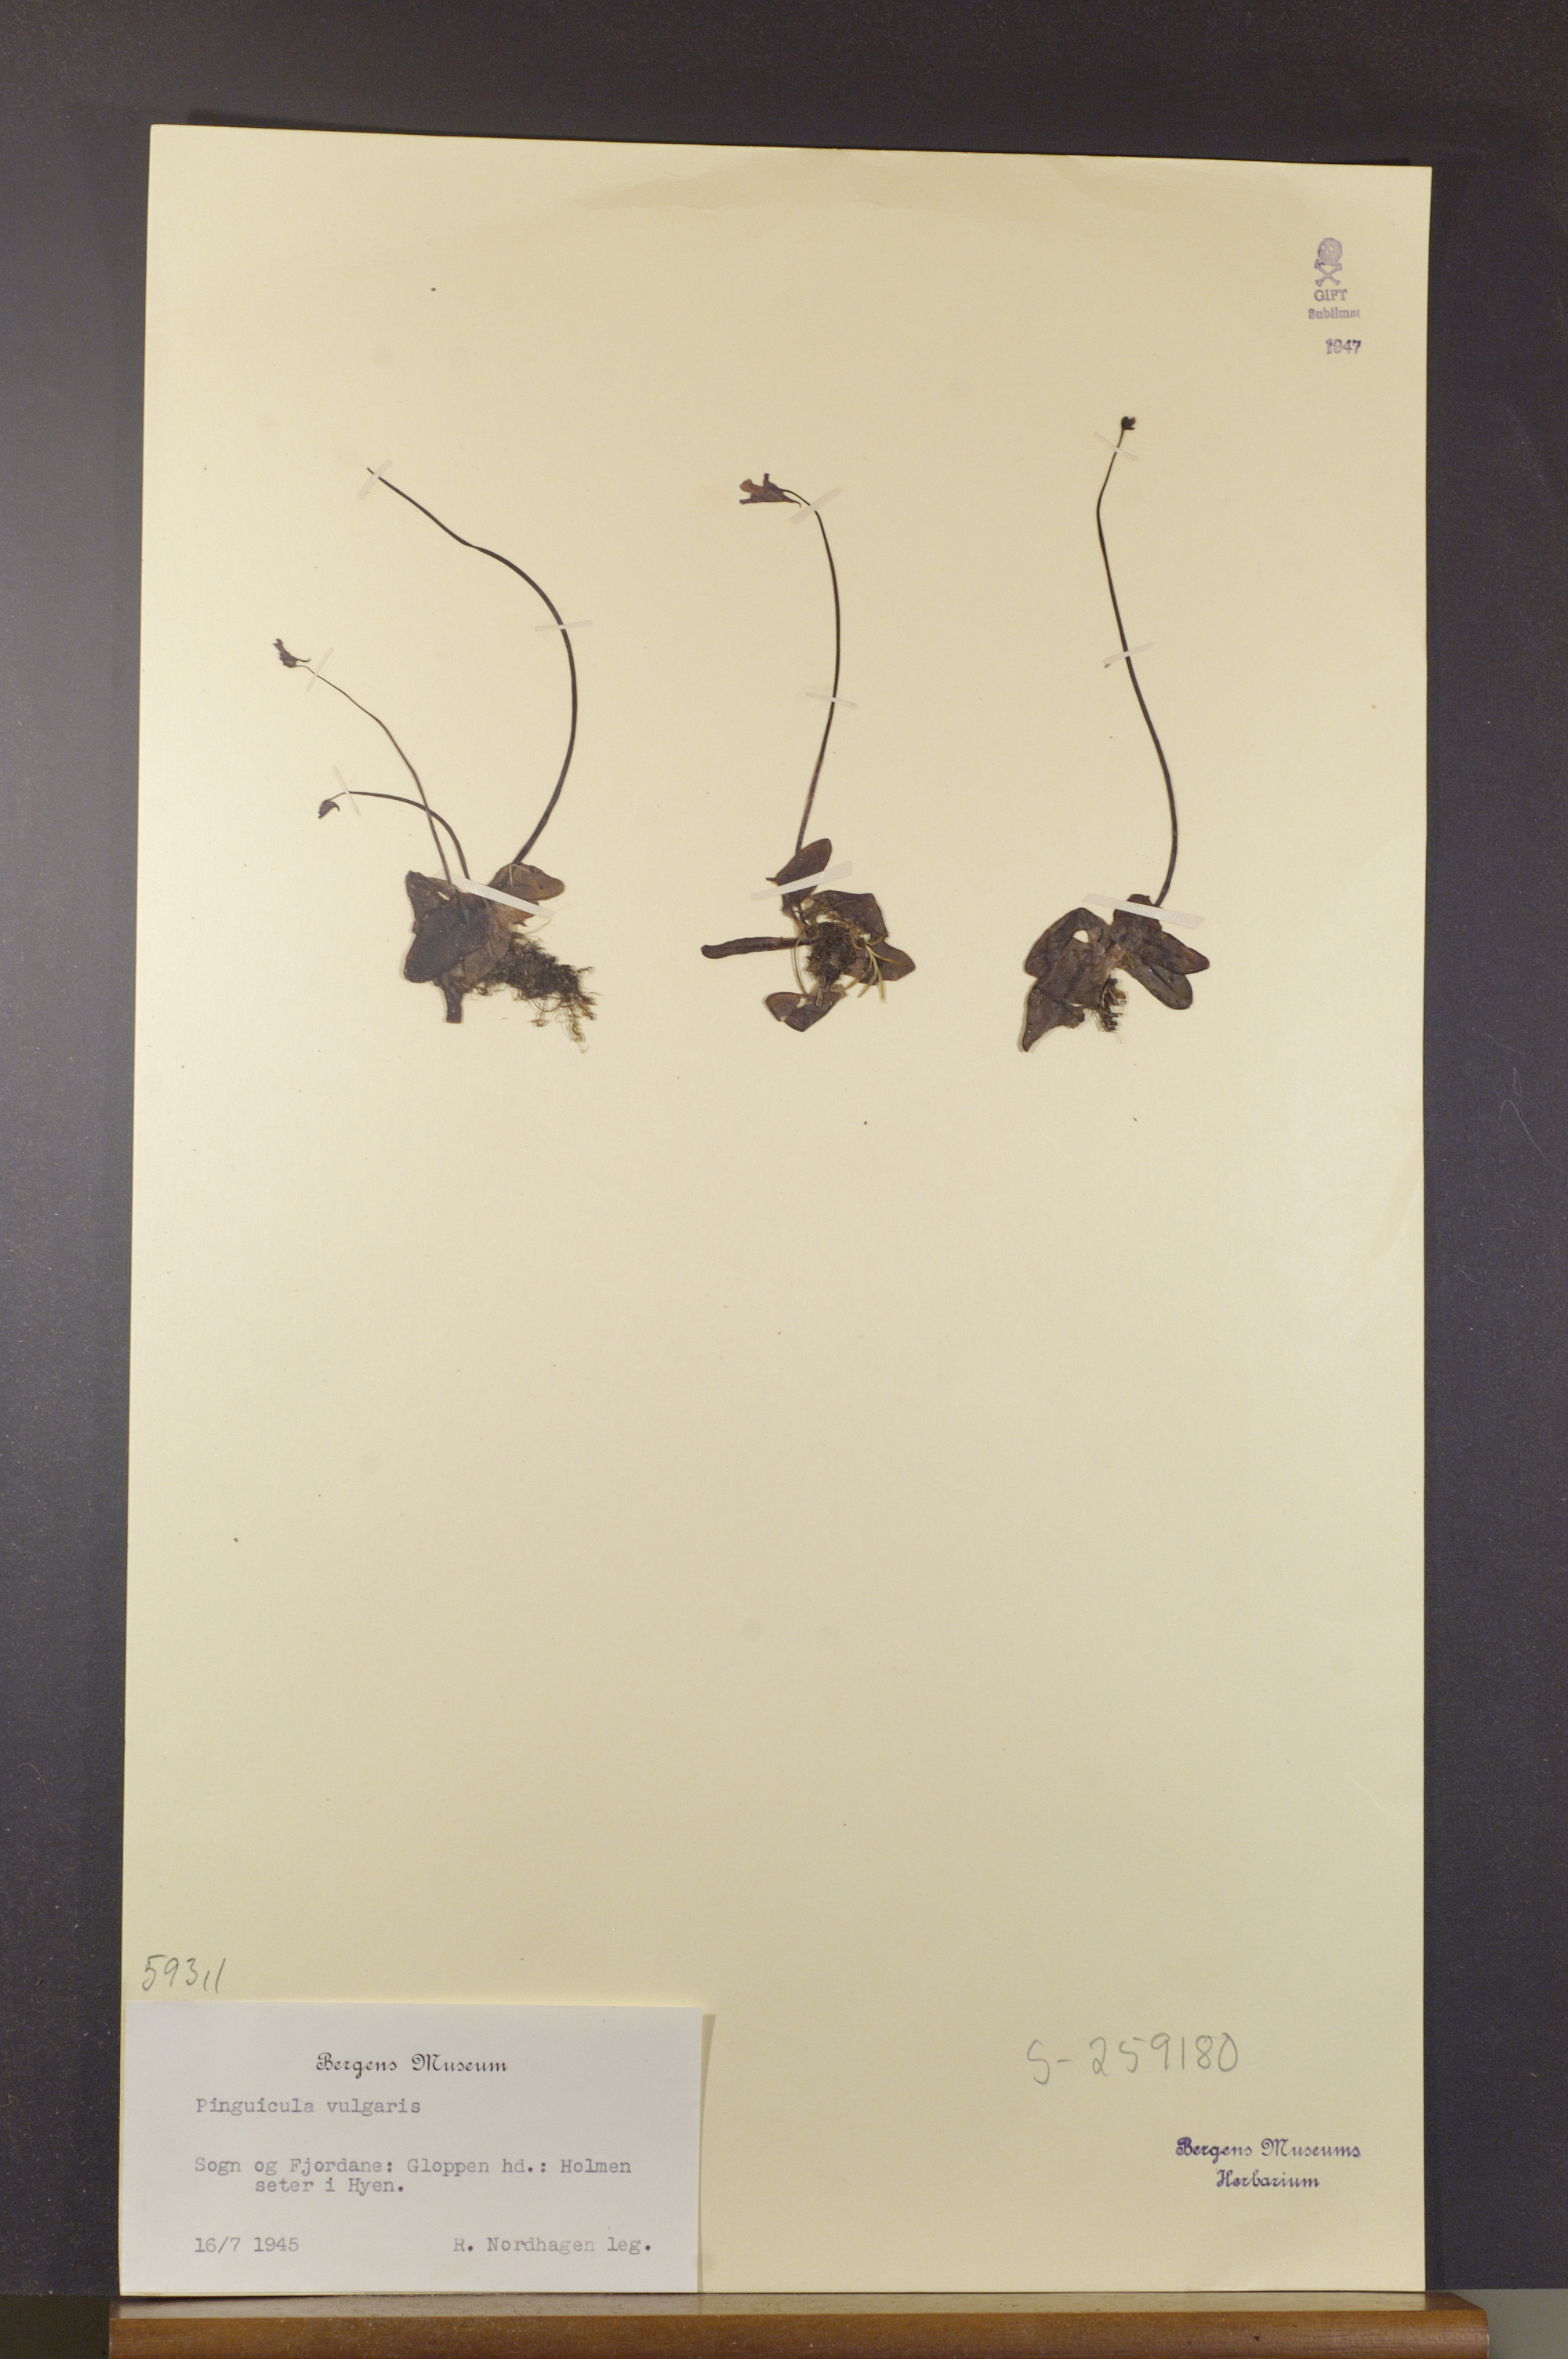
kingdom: Plantae
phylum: Tracheophyta
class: Magnoliopsida
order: Lamiales
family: Lentibulariaceae
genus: Pinguicula
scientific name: Pinguicula vulgaris
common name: Common butterwort
